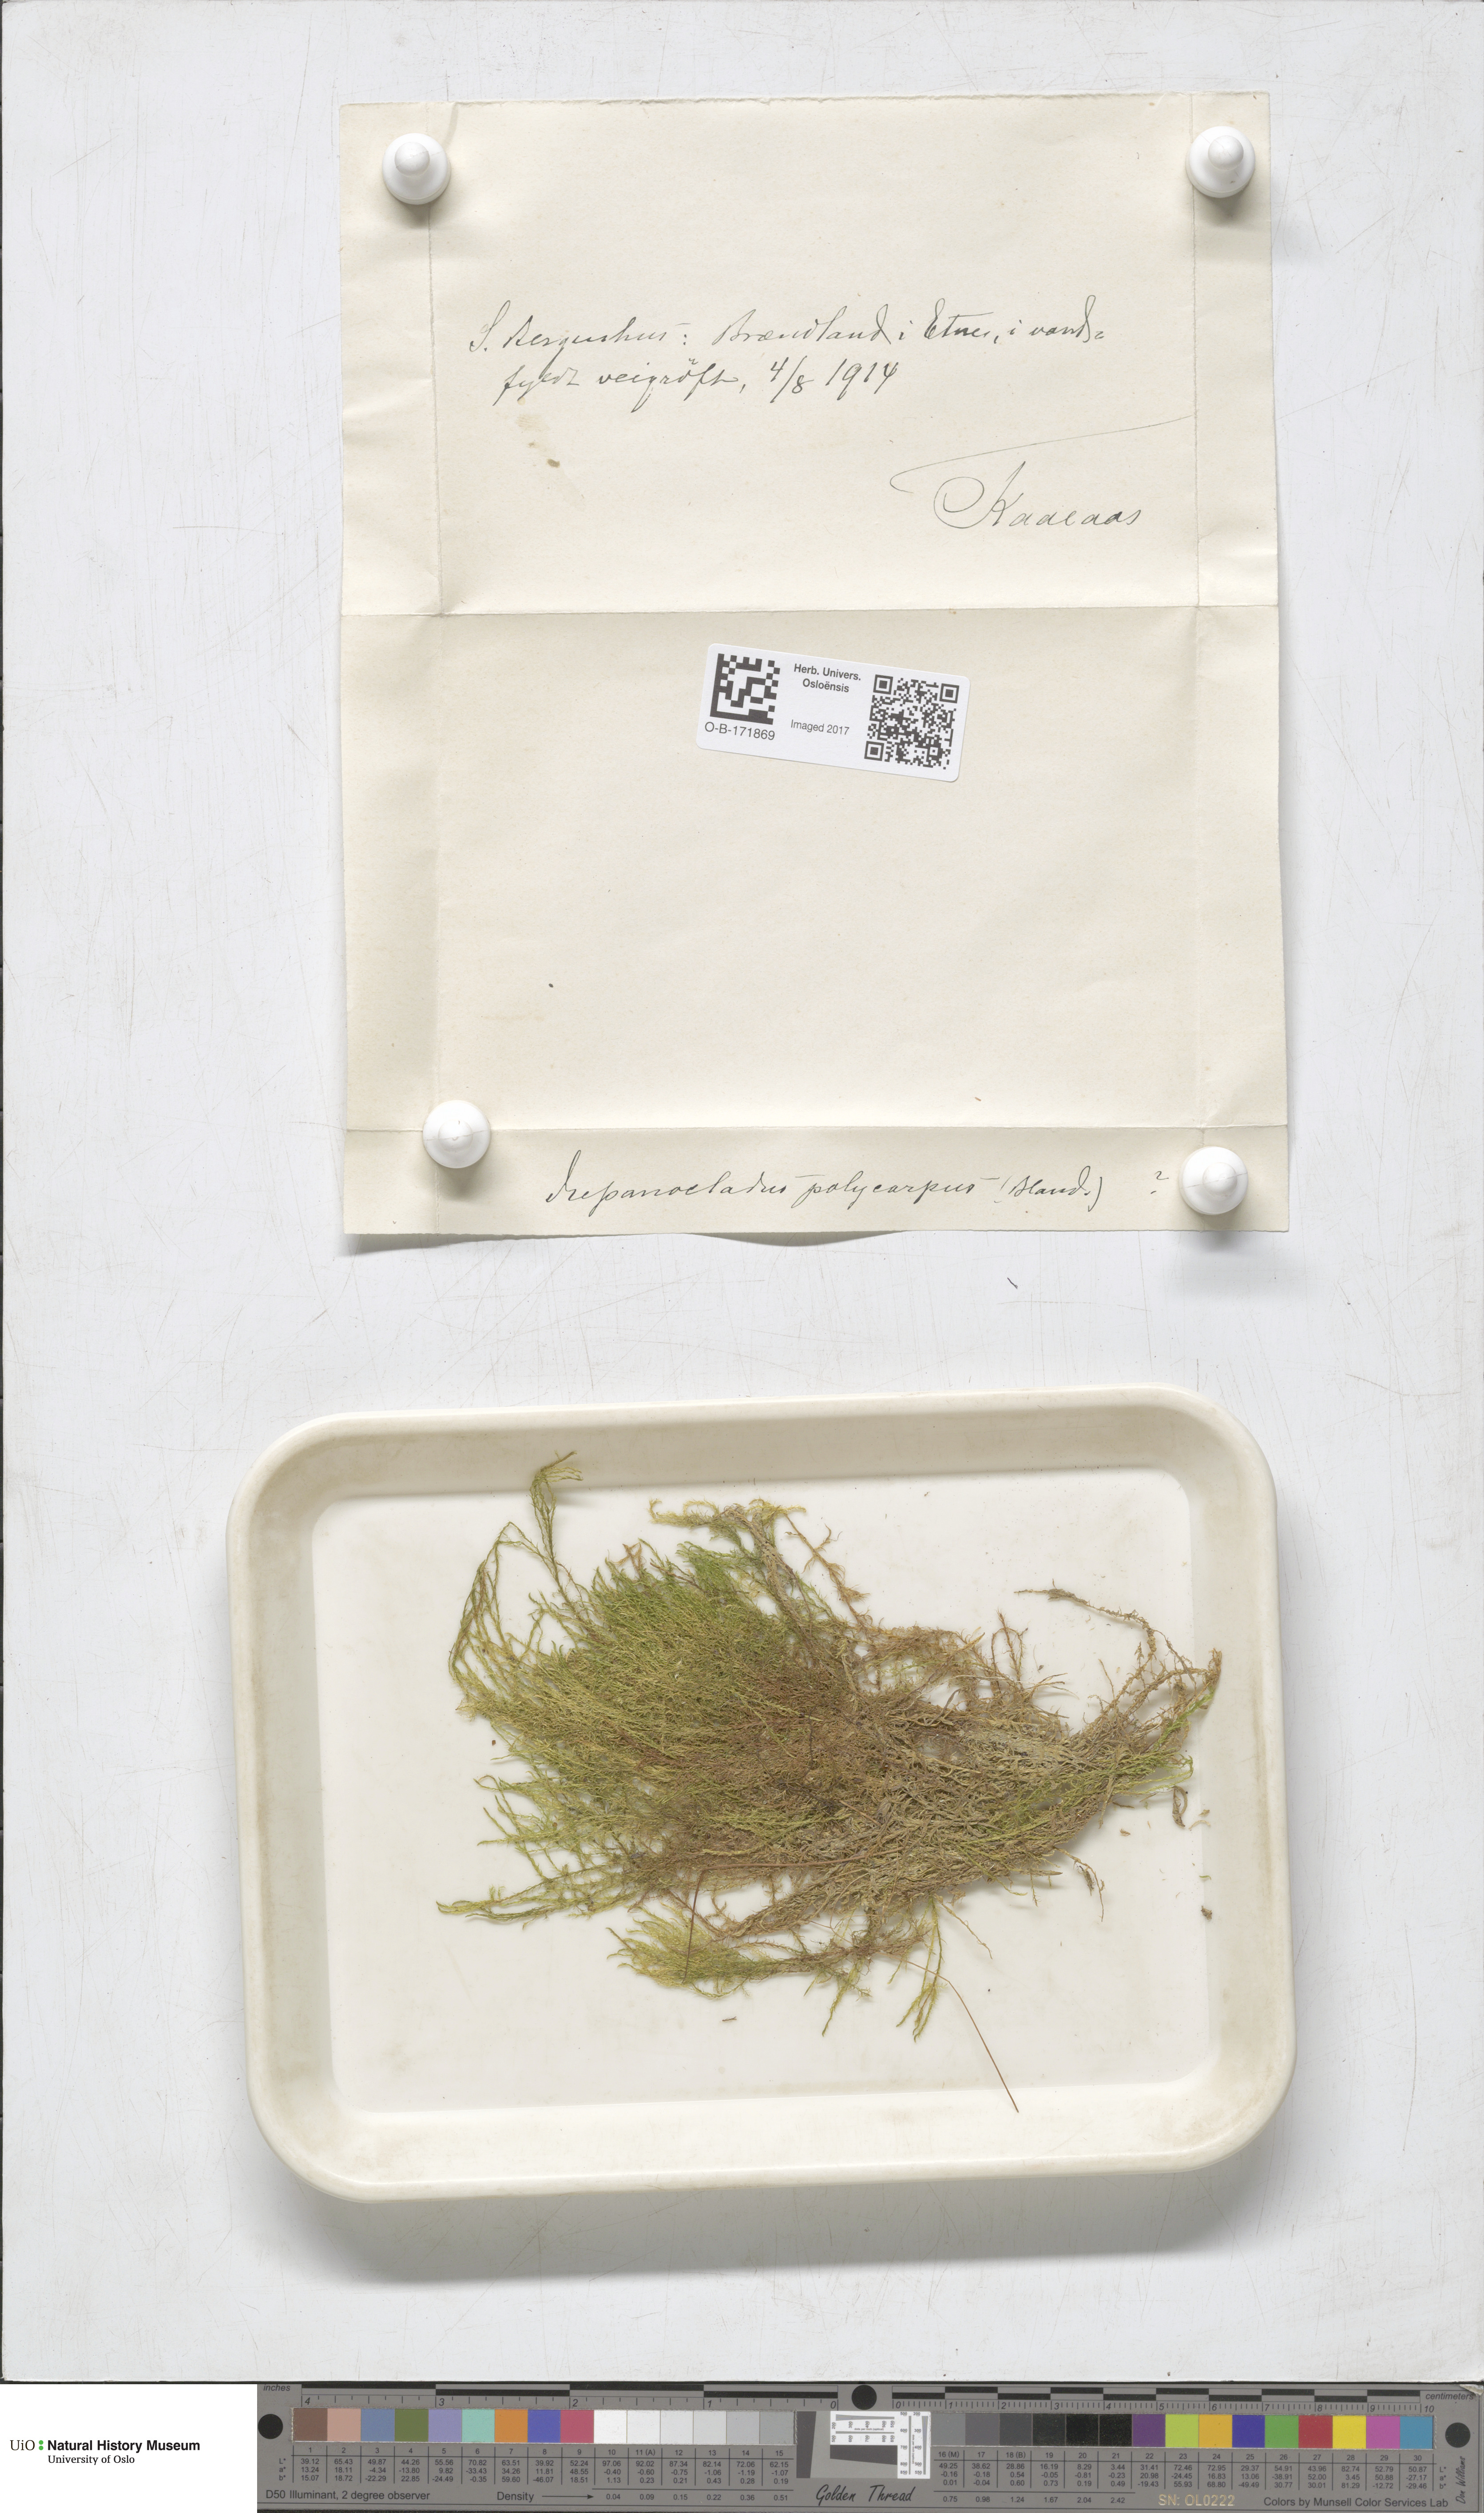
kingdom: Plantae
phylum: Bryophyta
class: Bryopsida
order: Hypnales
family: Amblystegiaceae
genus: Drepanocladus
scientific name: Drepanocladus aduncus
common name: Knieff's hook moss
